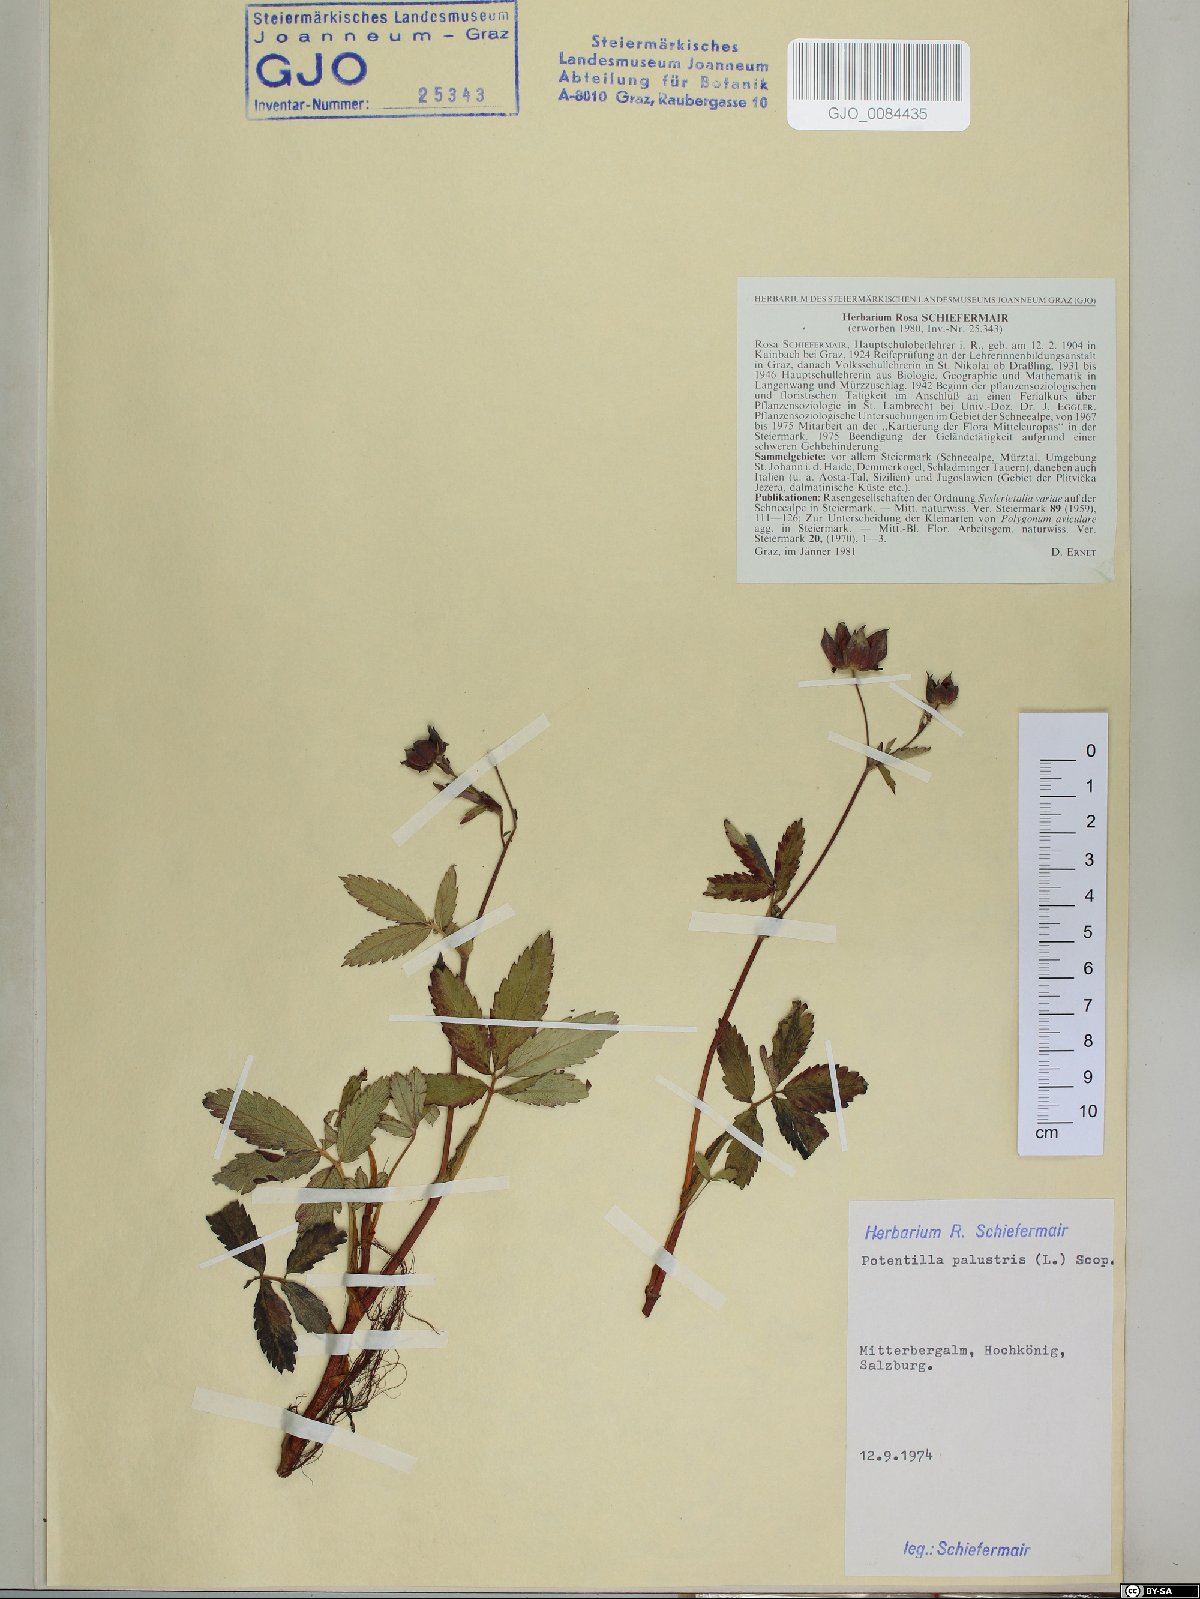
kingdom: Plantae
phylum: Tracheophyta
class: Magnoliopsida
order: Rosales
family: Rosaceae
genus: Comarum
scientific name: Comarum palustre
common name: Marsh cinquefoil
